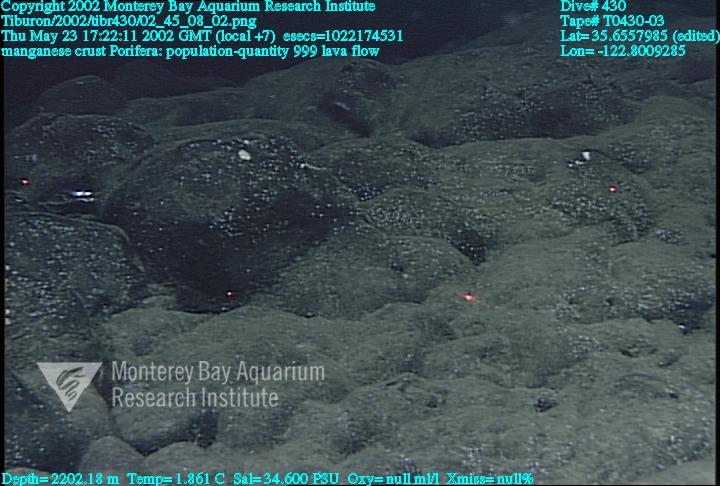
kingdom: Animalia
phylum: Porifera
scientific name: Porifera
